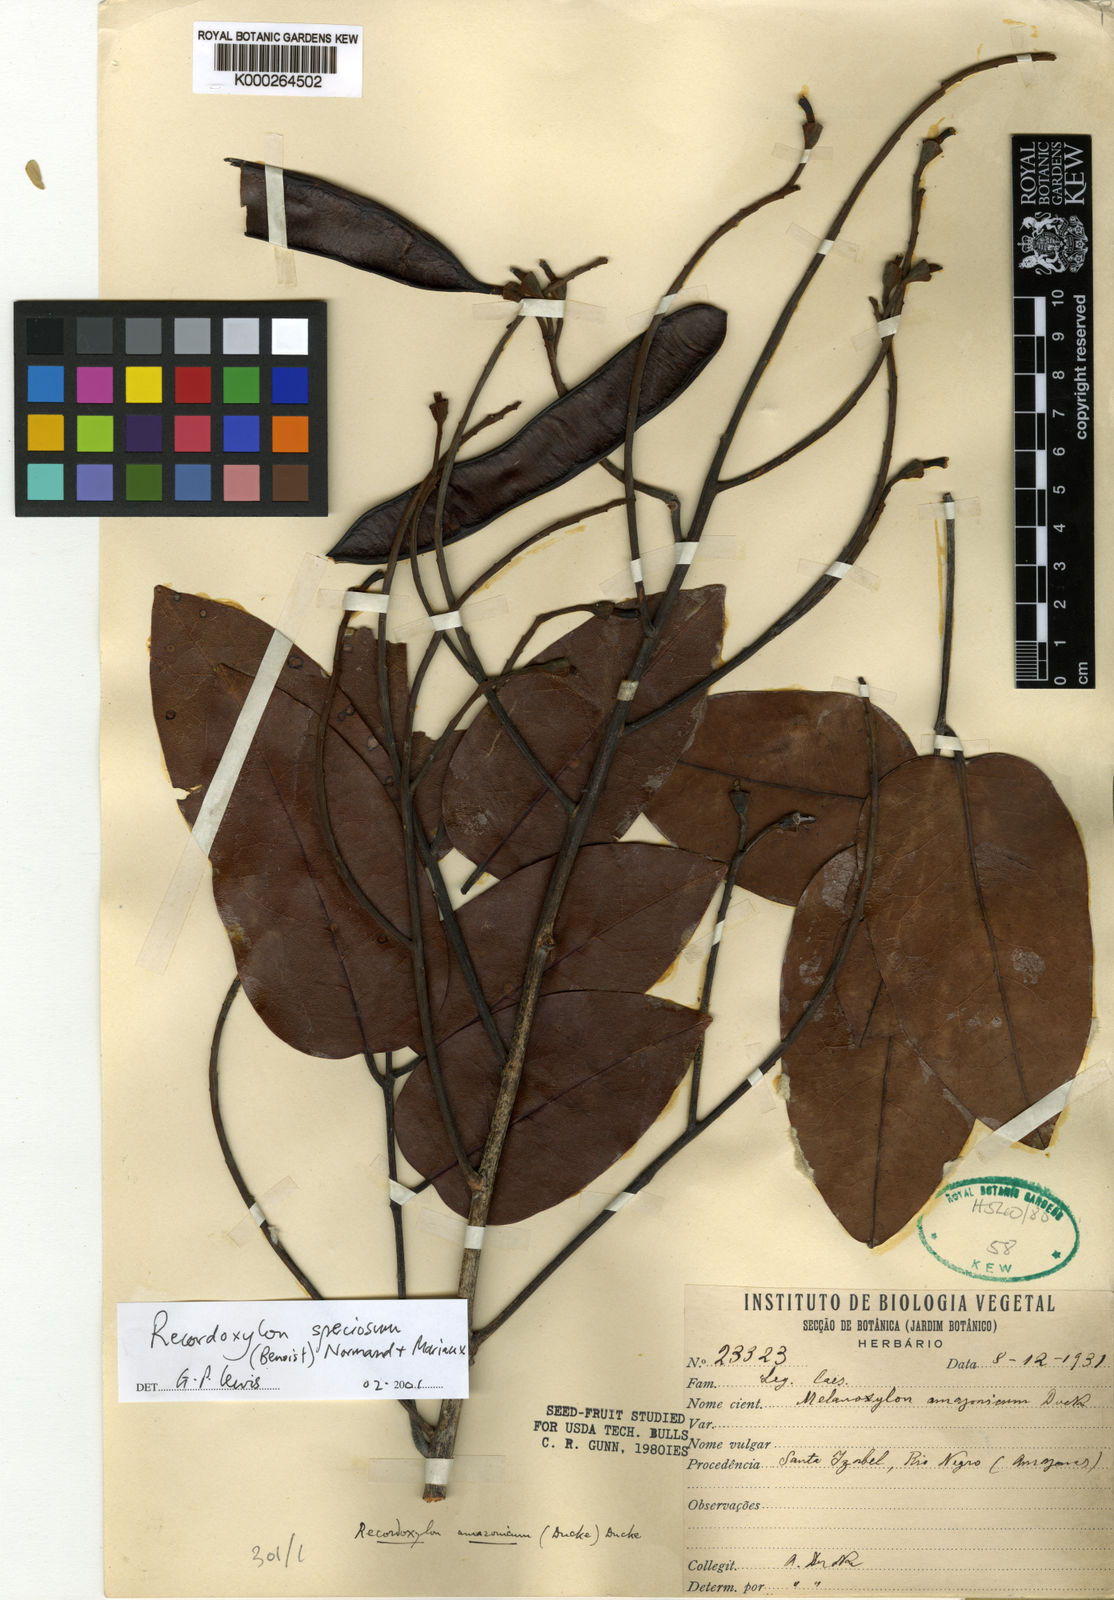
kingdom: Plantae
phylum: Tracheophyta
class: Magnoliopsida
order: Fabales
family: Fabaceae
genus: Recordoxylon
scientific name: Recordoxylon
